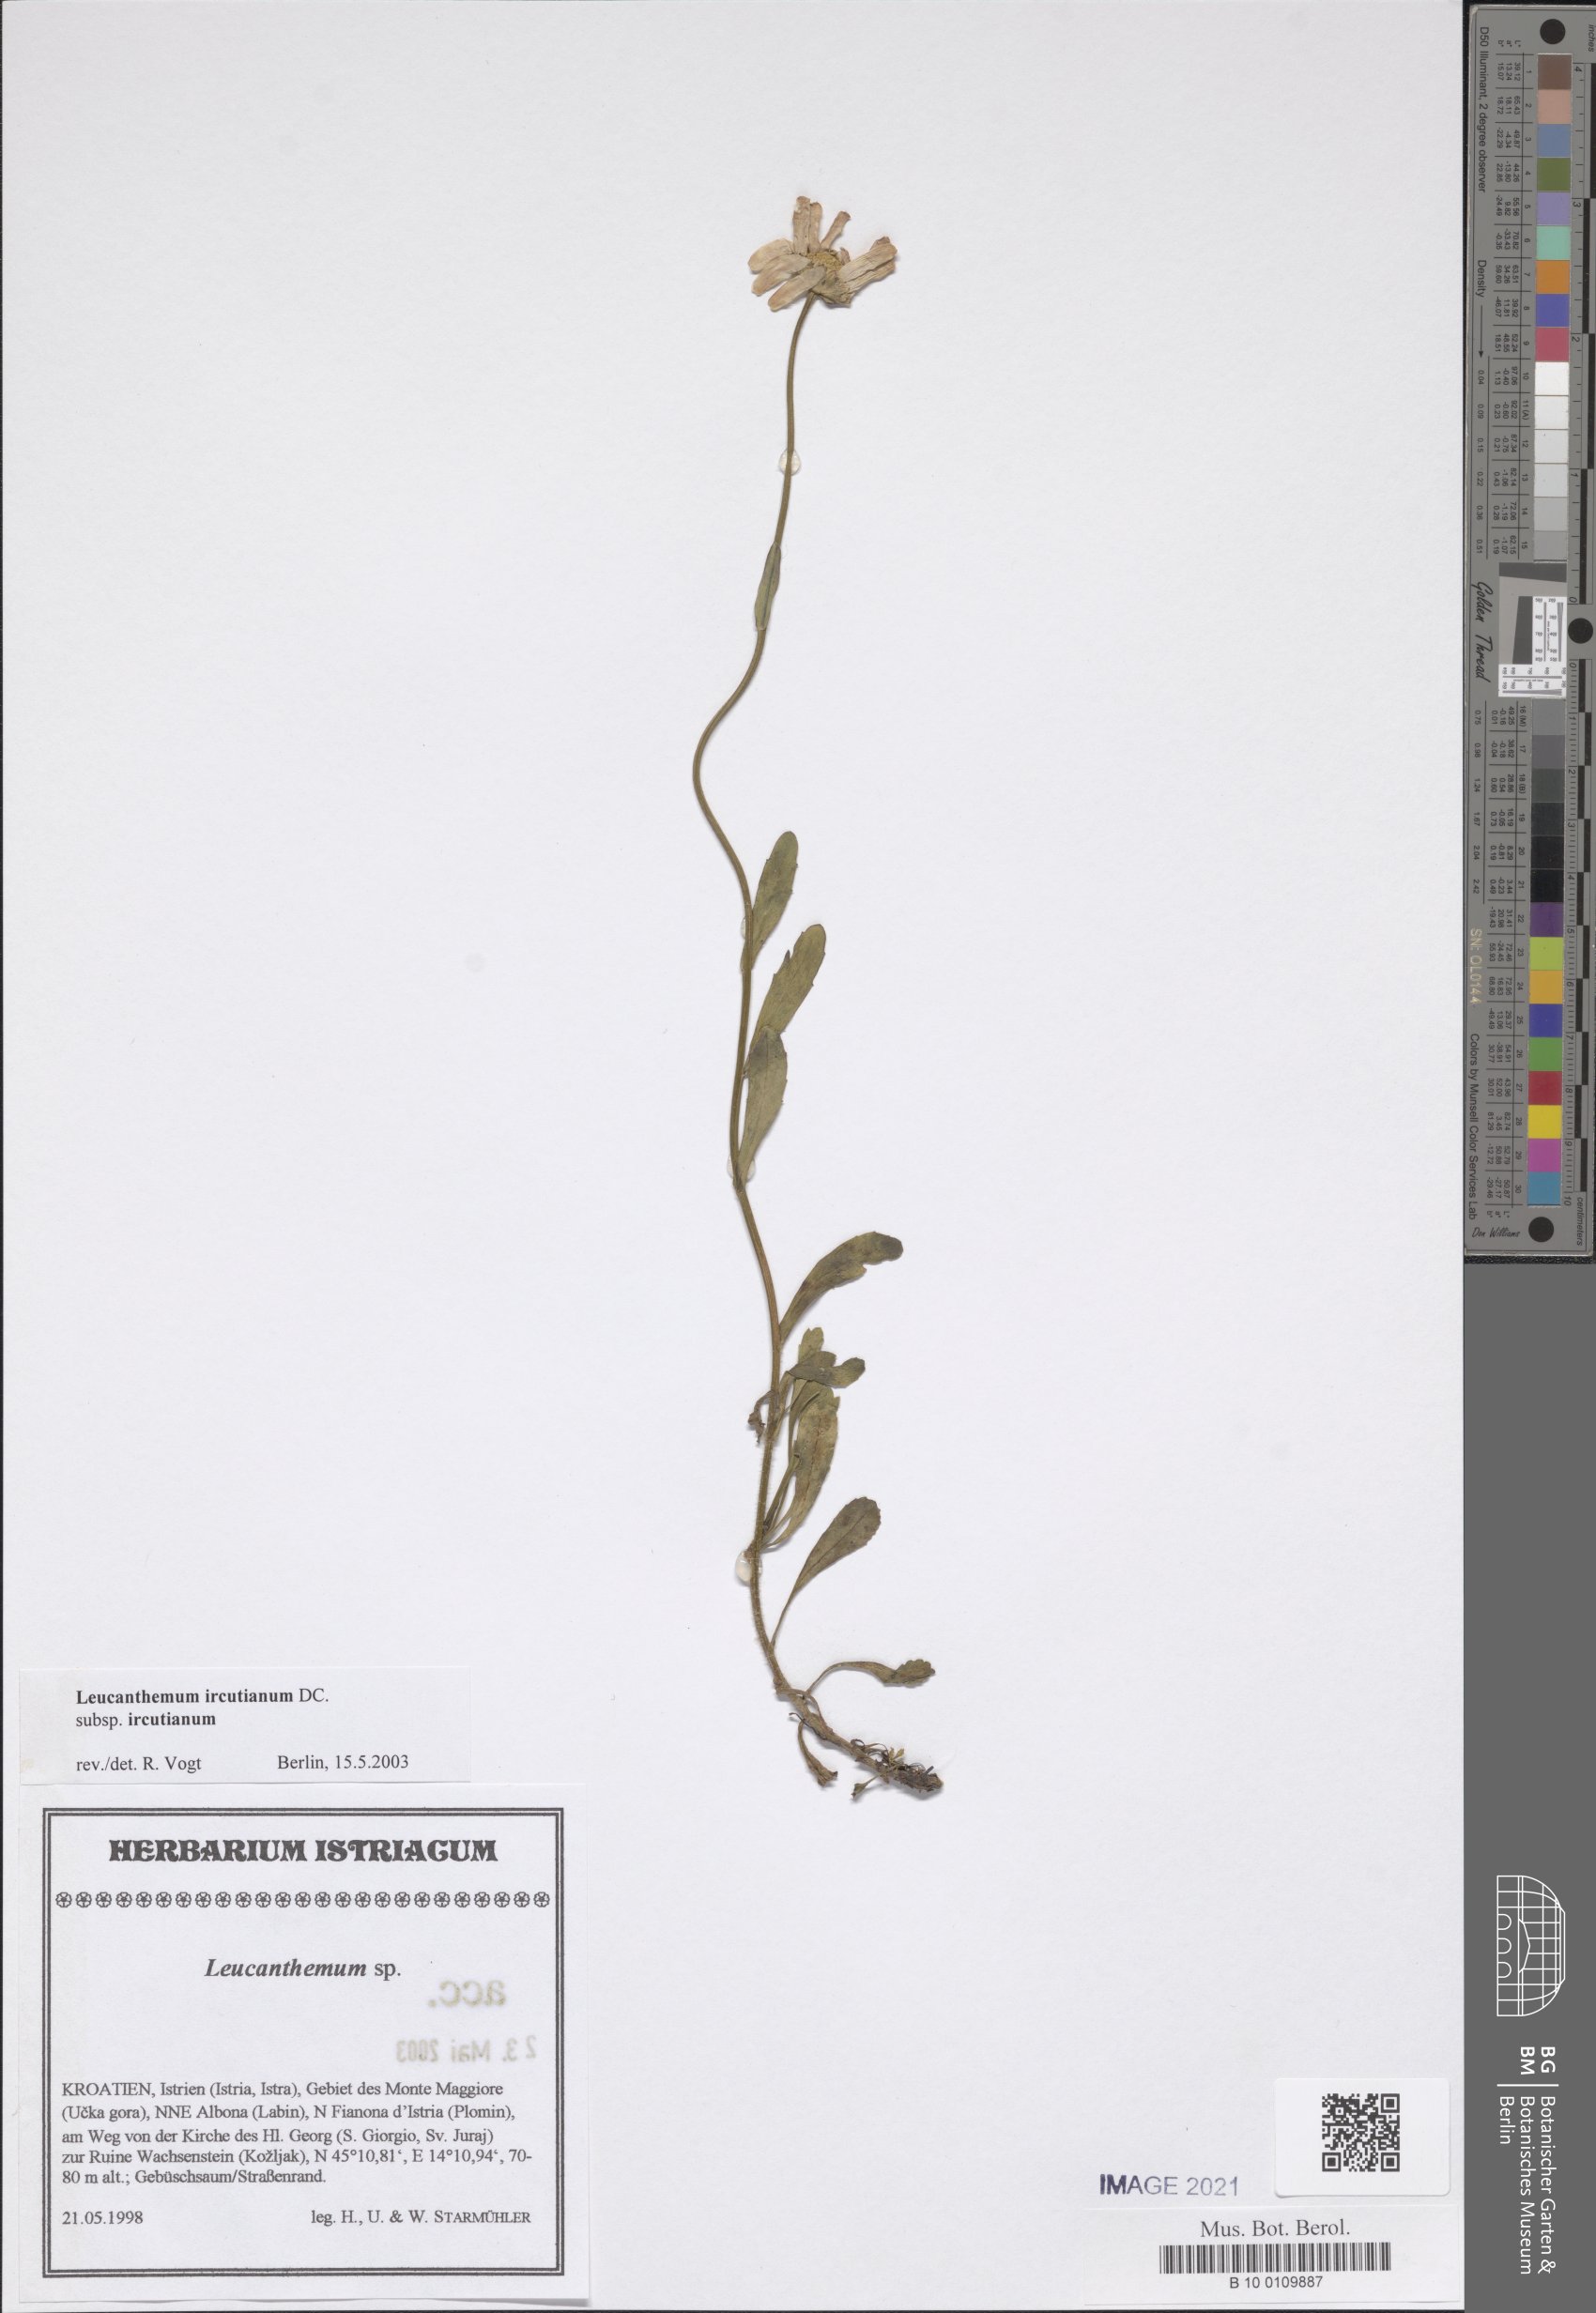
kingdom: Plantae
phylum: Tracheophyta
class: Magnoliopsida
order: Asterales
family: Asteraceae
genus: Leucanthemum
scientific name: Leucanthemum ircutianum
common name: Daisy
